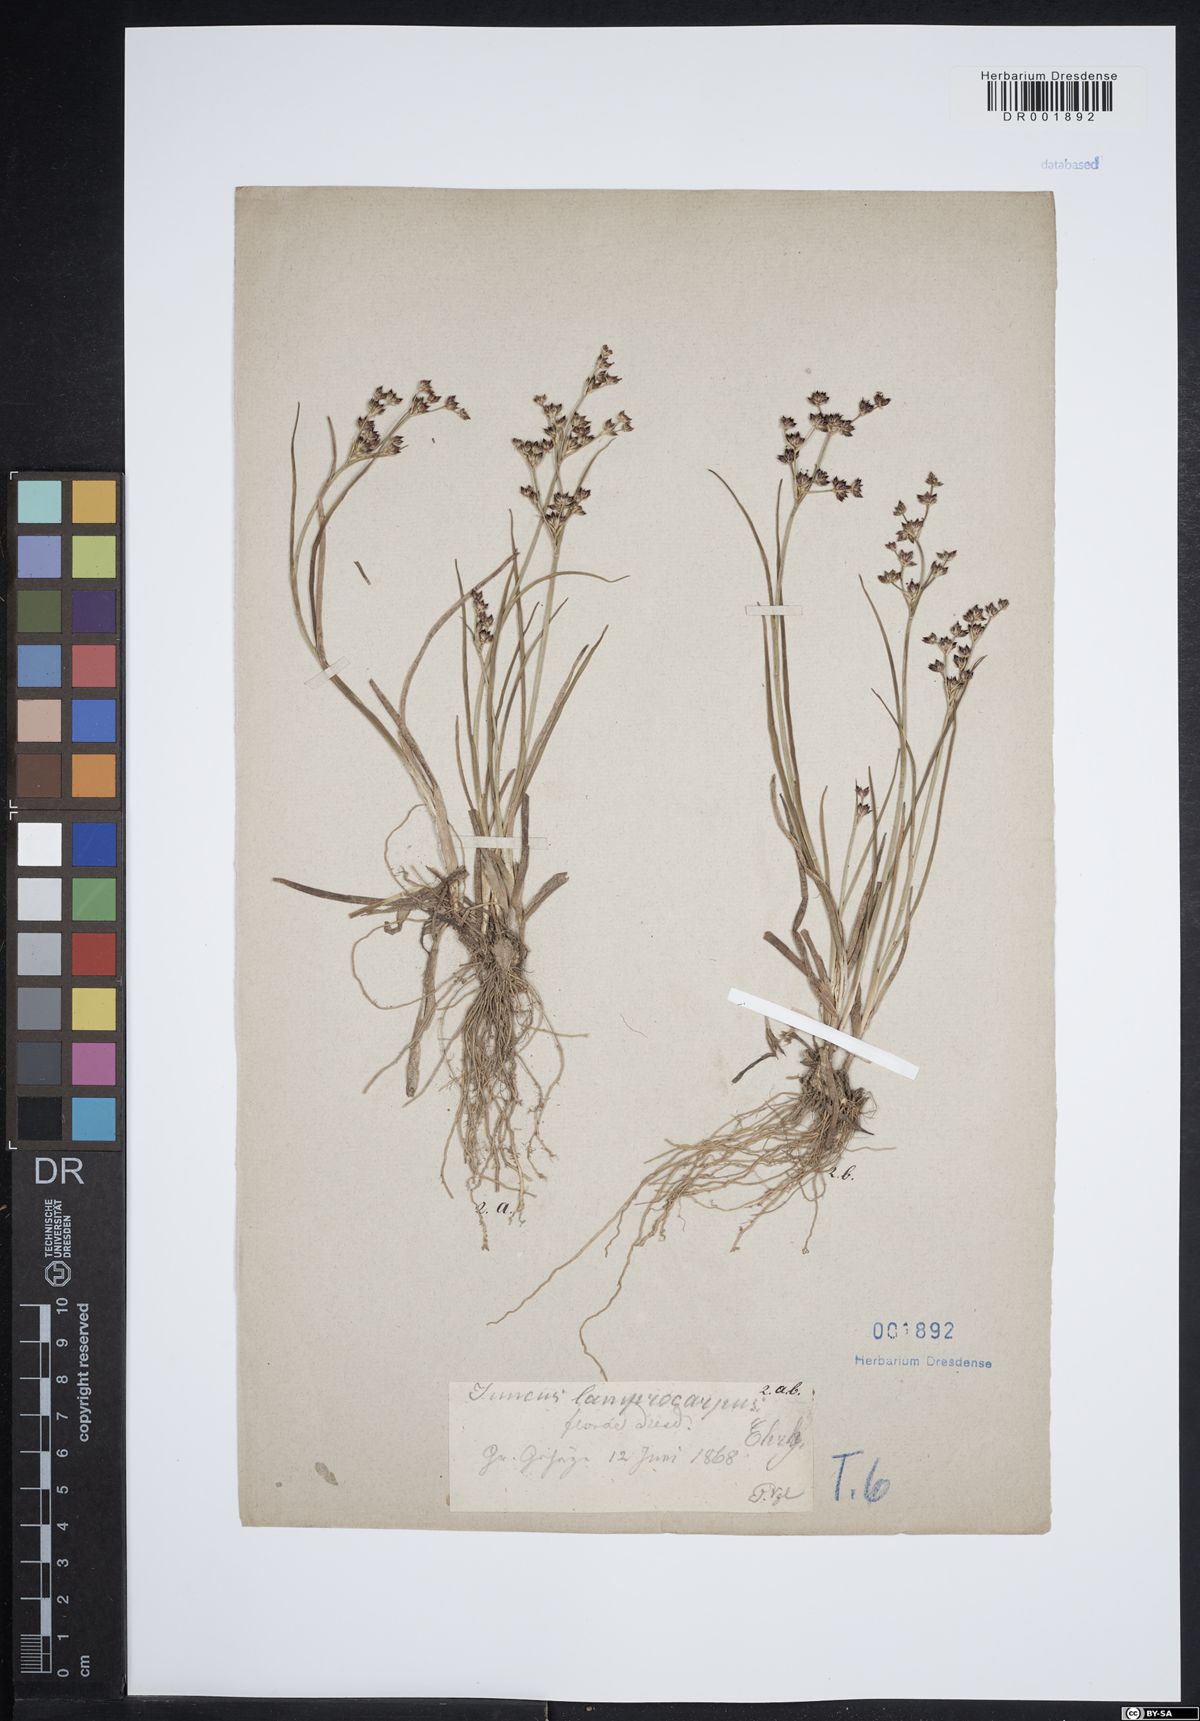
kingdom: Plantae
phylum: Tracheophyta
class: Liliopsida
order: Poales
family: Juncaceae
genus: Juncus
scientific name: Juncus articulatus
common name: Jointed rush
